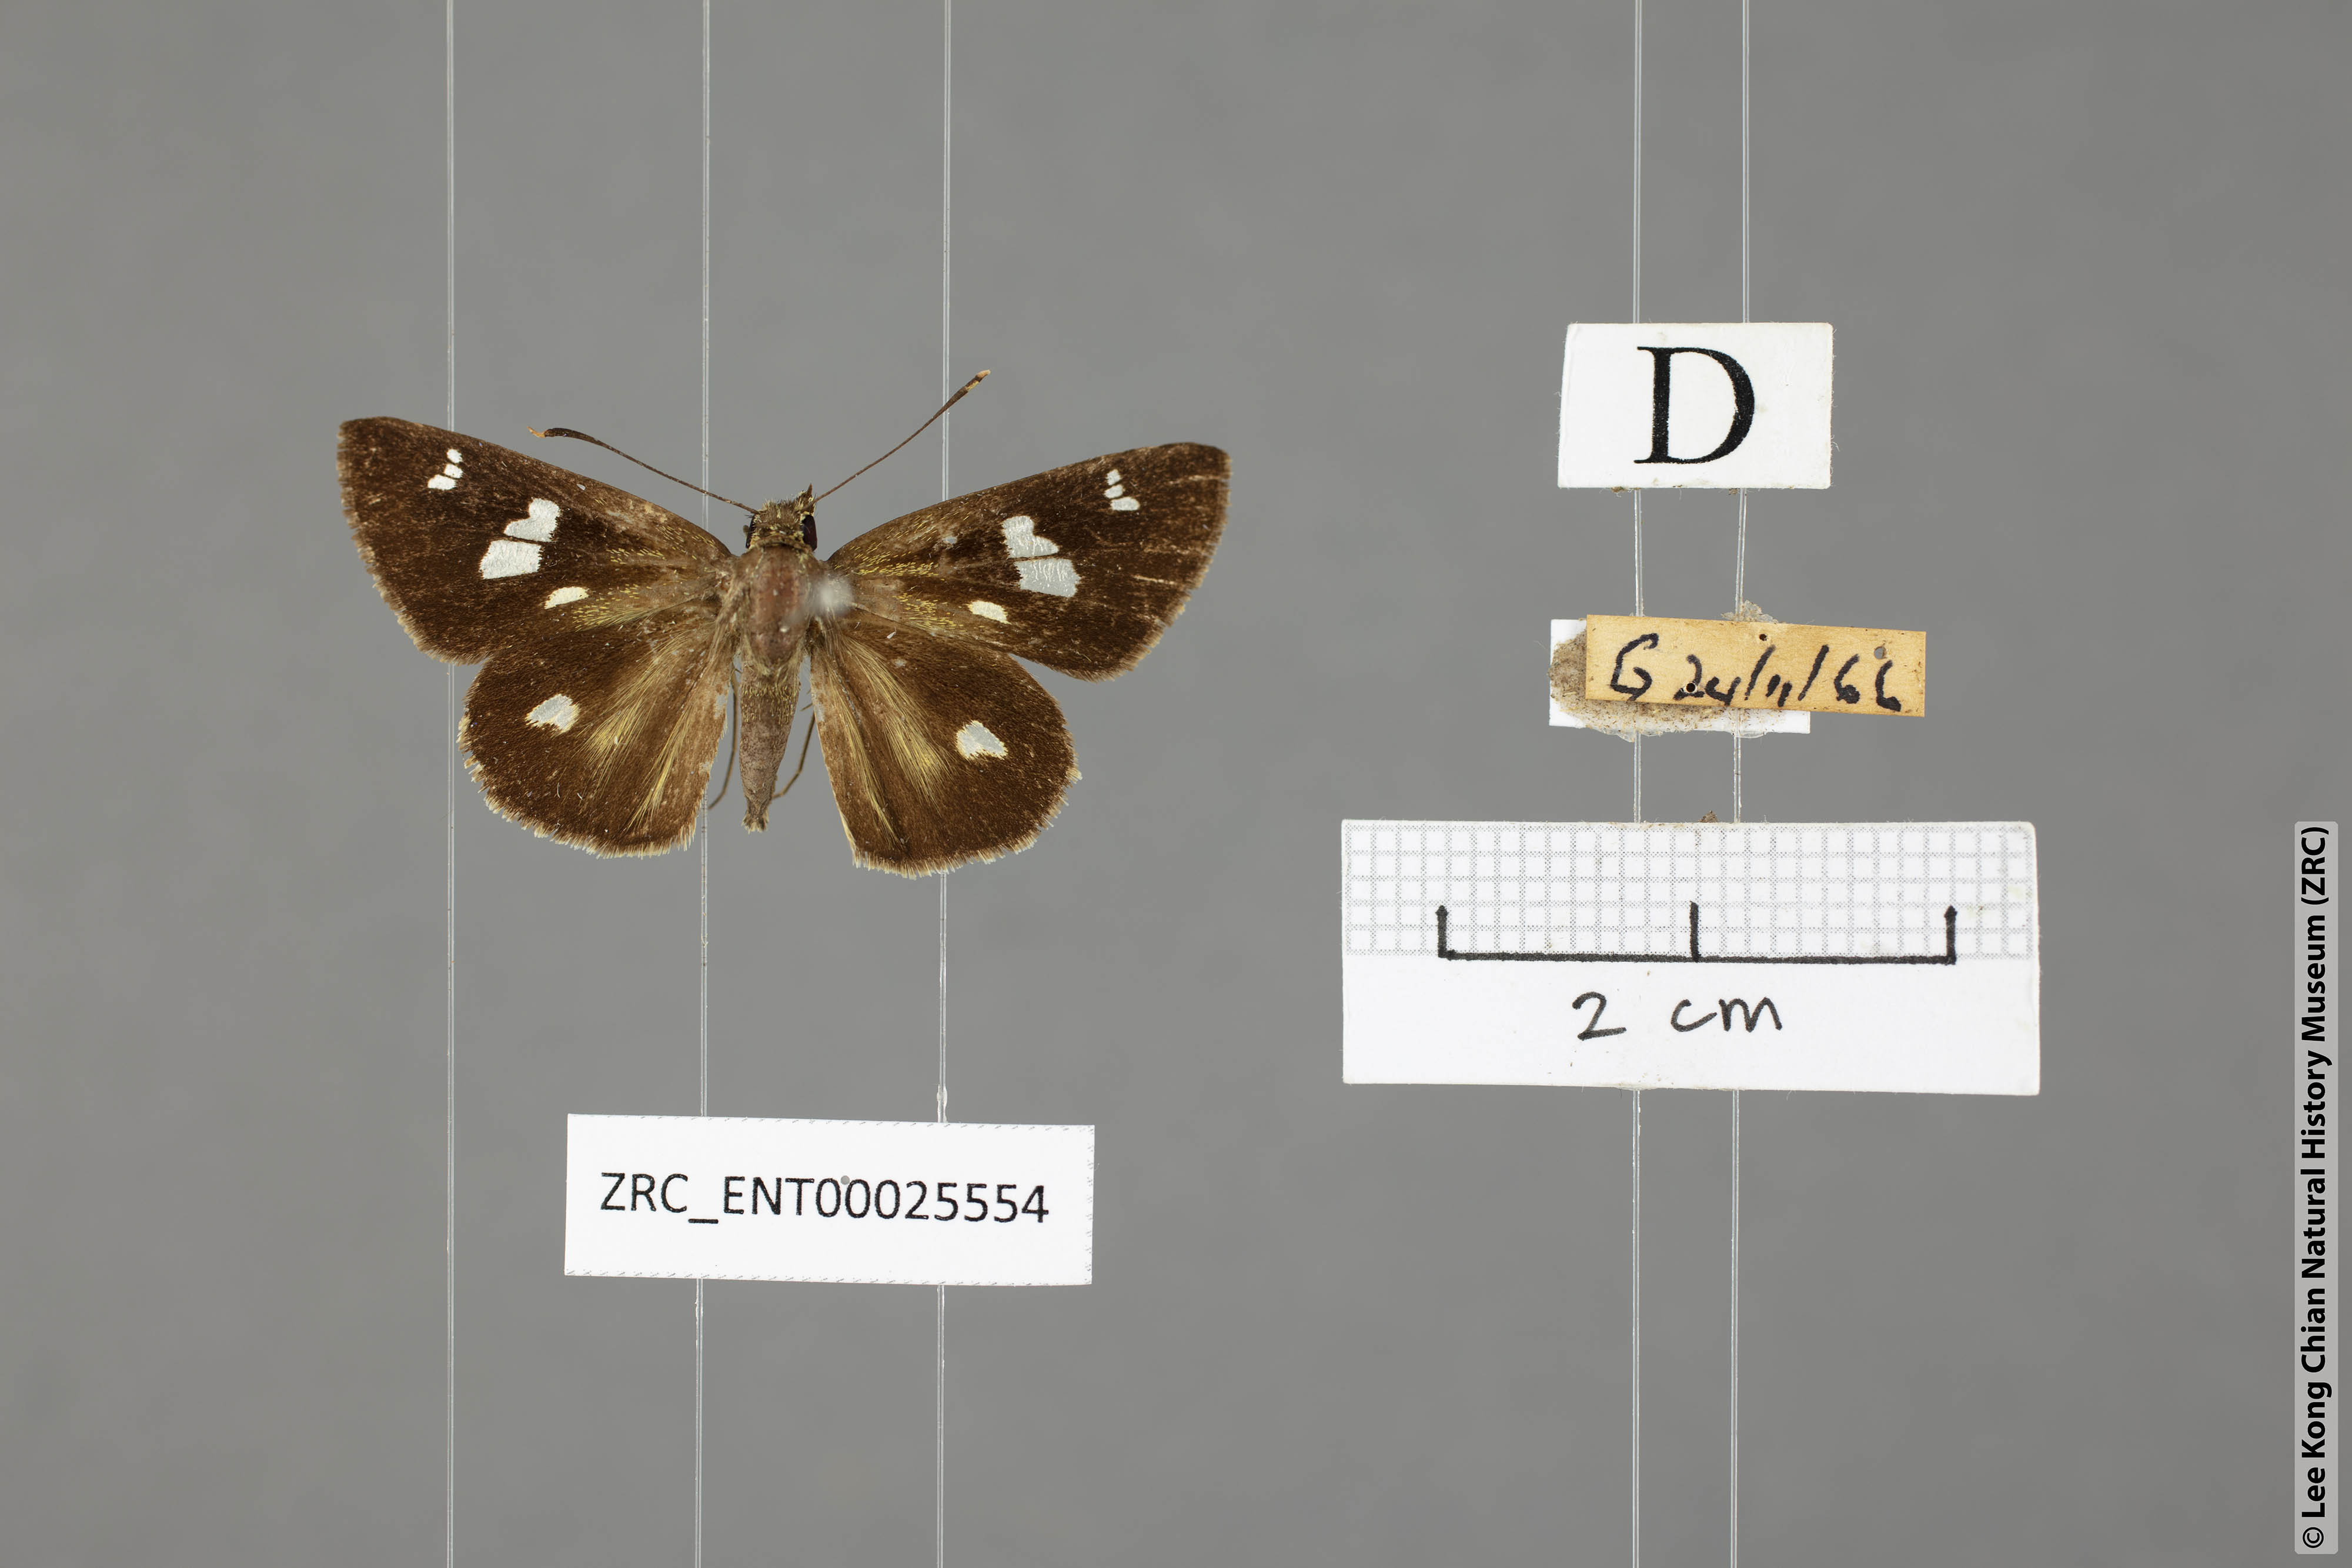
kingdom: Animalia
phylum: Arthropoda
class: Insecta
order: Lepidoptera
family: Hesperiidae
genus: Scobura
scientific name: Scobura phiditia
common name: Malay forest bob
